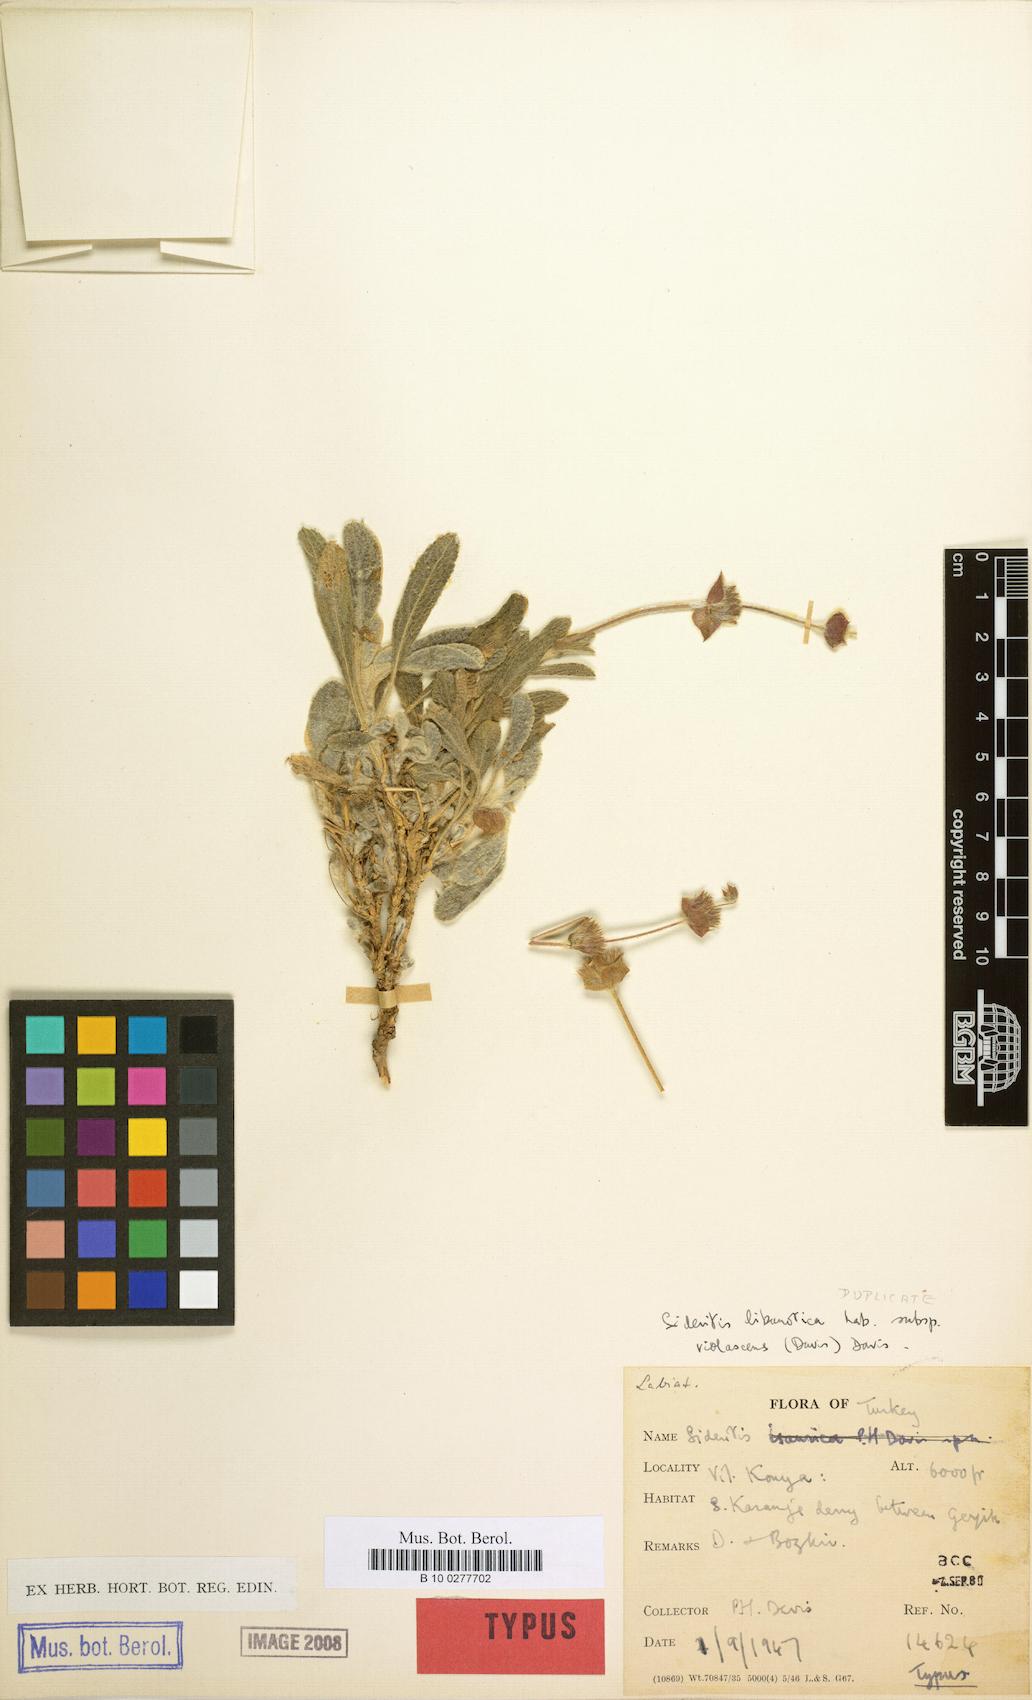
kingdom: Plantae
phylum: Tracheophyta
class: Magnoliopsida
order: Lamiales
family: Lamiaceae
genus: Sideritis
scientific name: Sideritis libanotica
